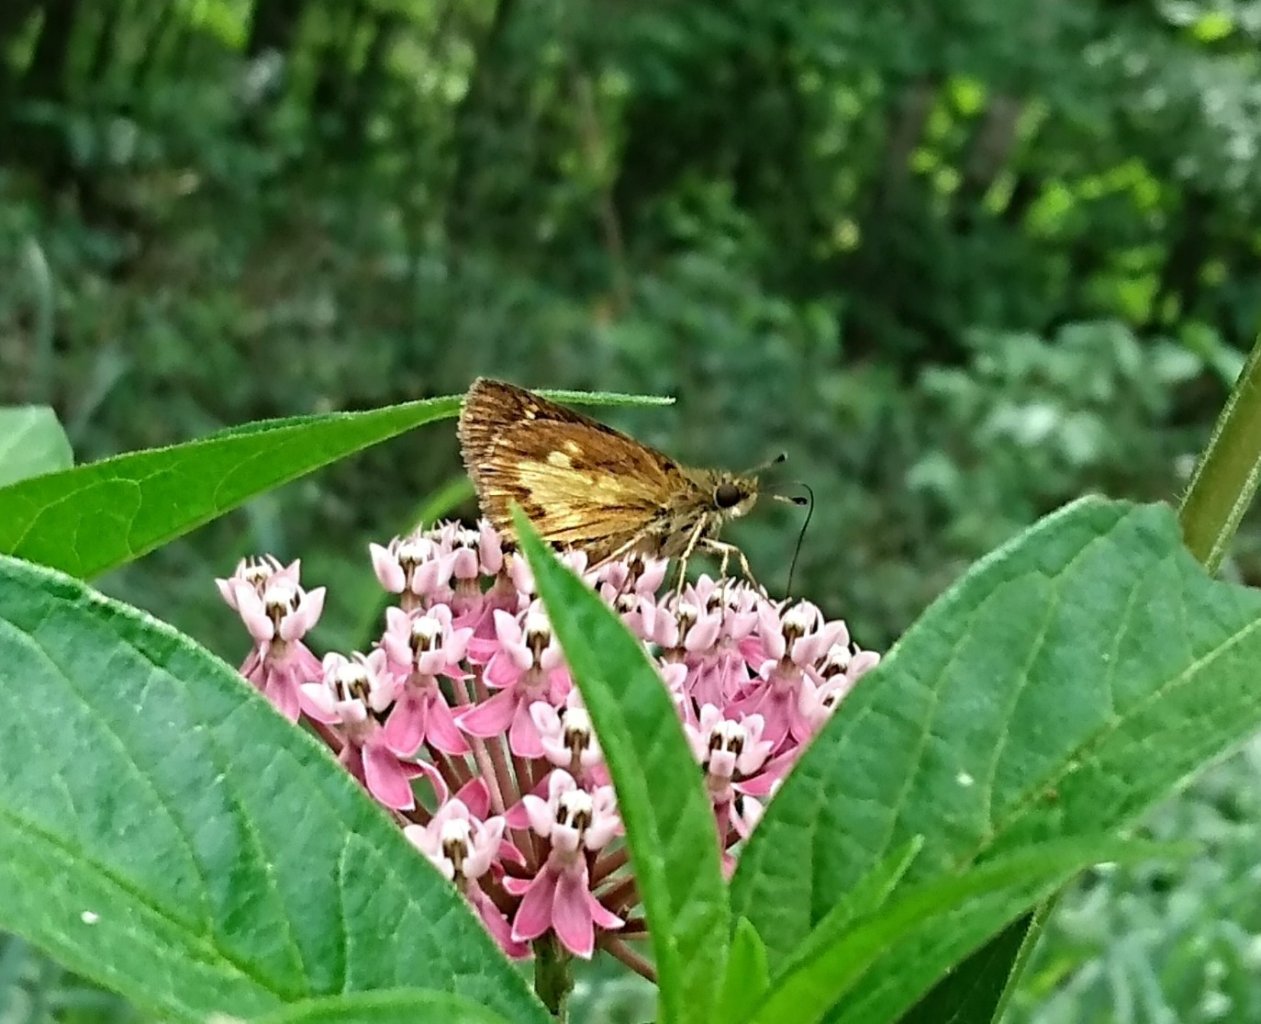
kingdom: Animalia
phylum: Arthropoda
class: Insecta
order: Lepidoptera
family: Hesperiidae
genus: Poanes
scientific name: Poanes massasoit
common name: Mulberry Wing
